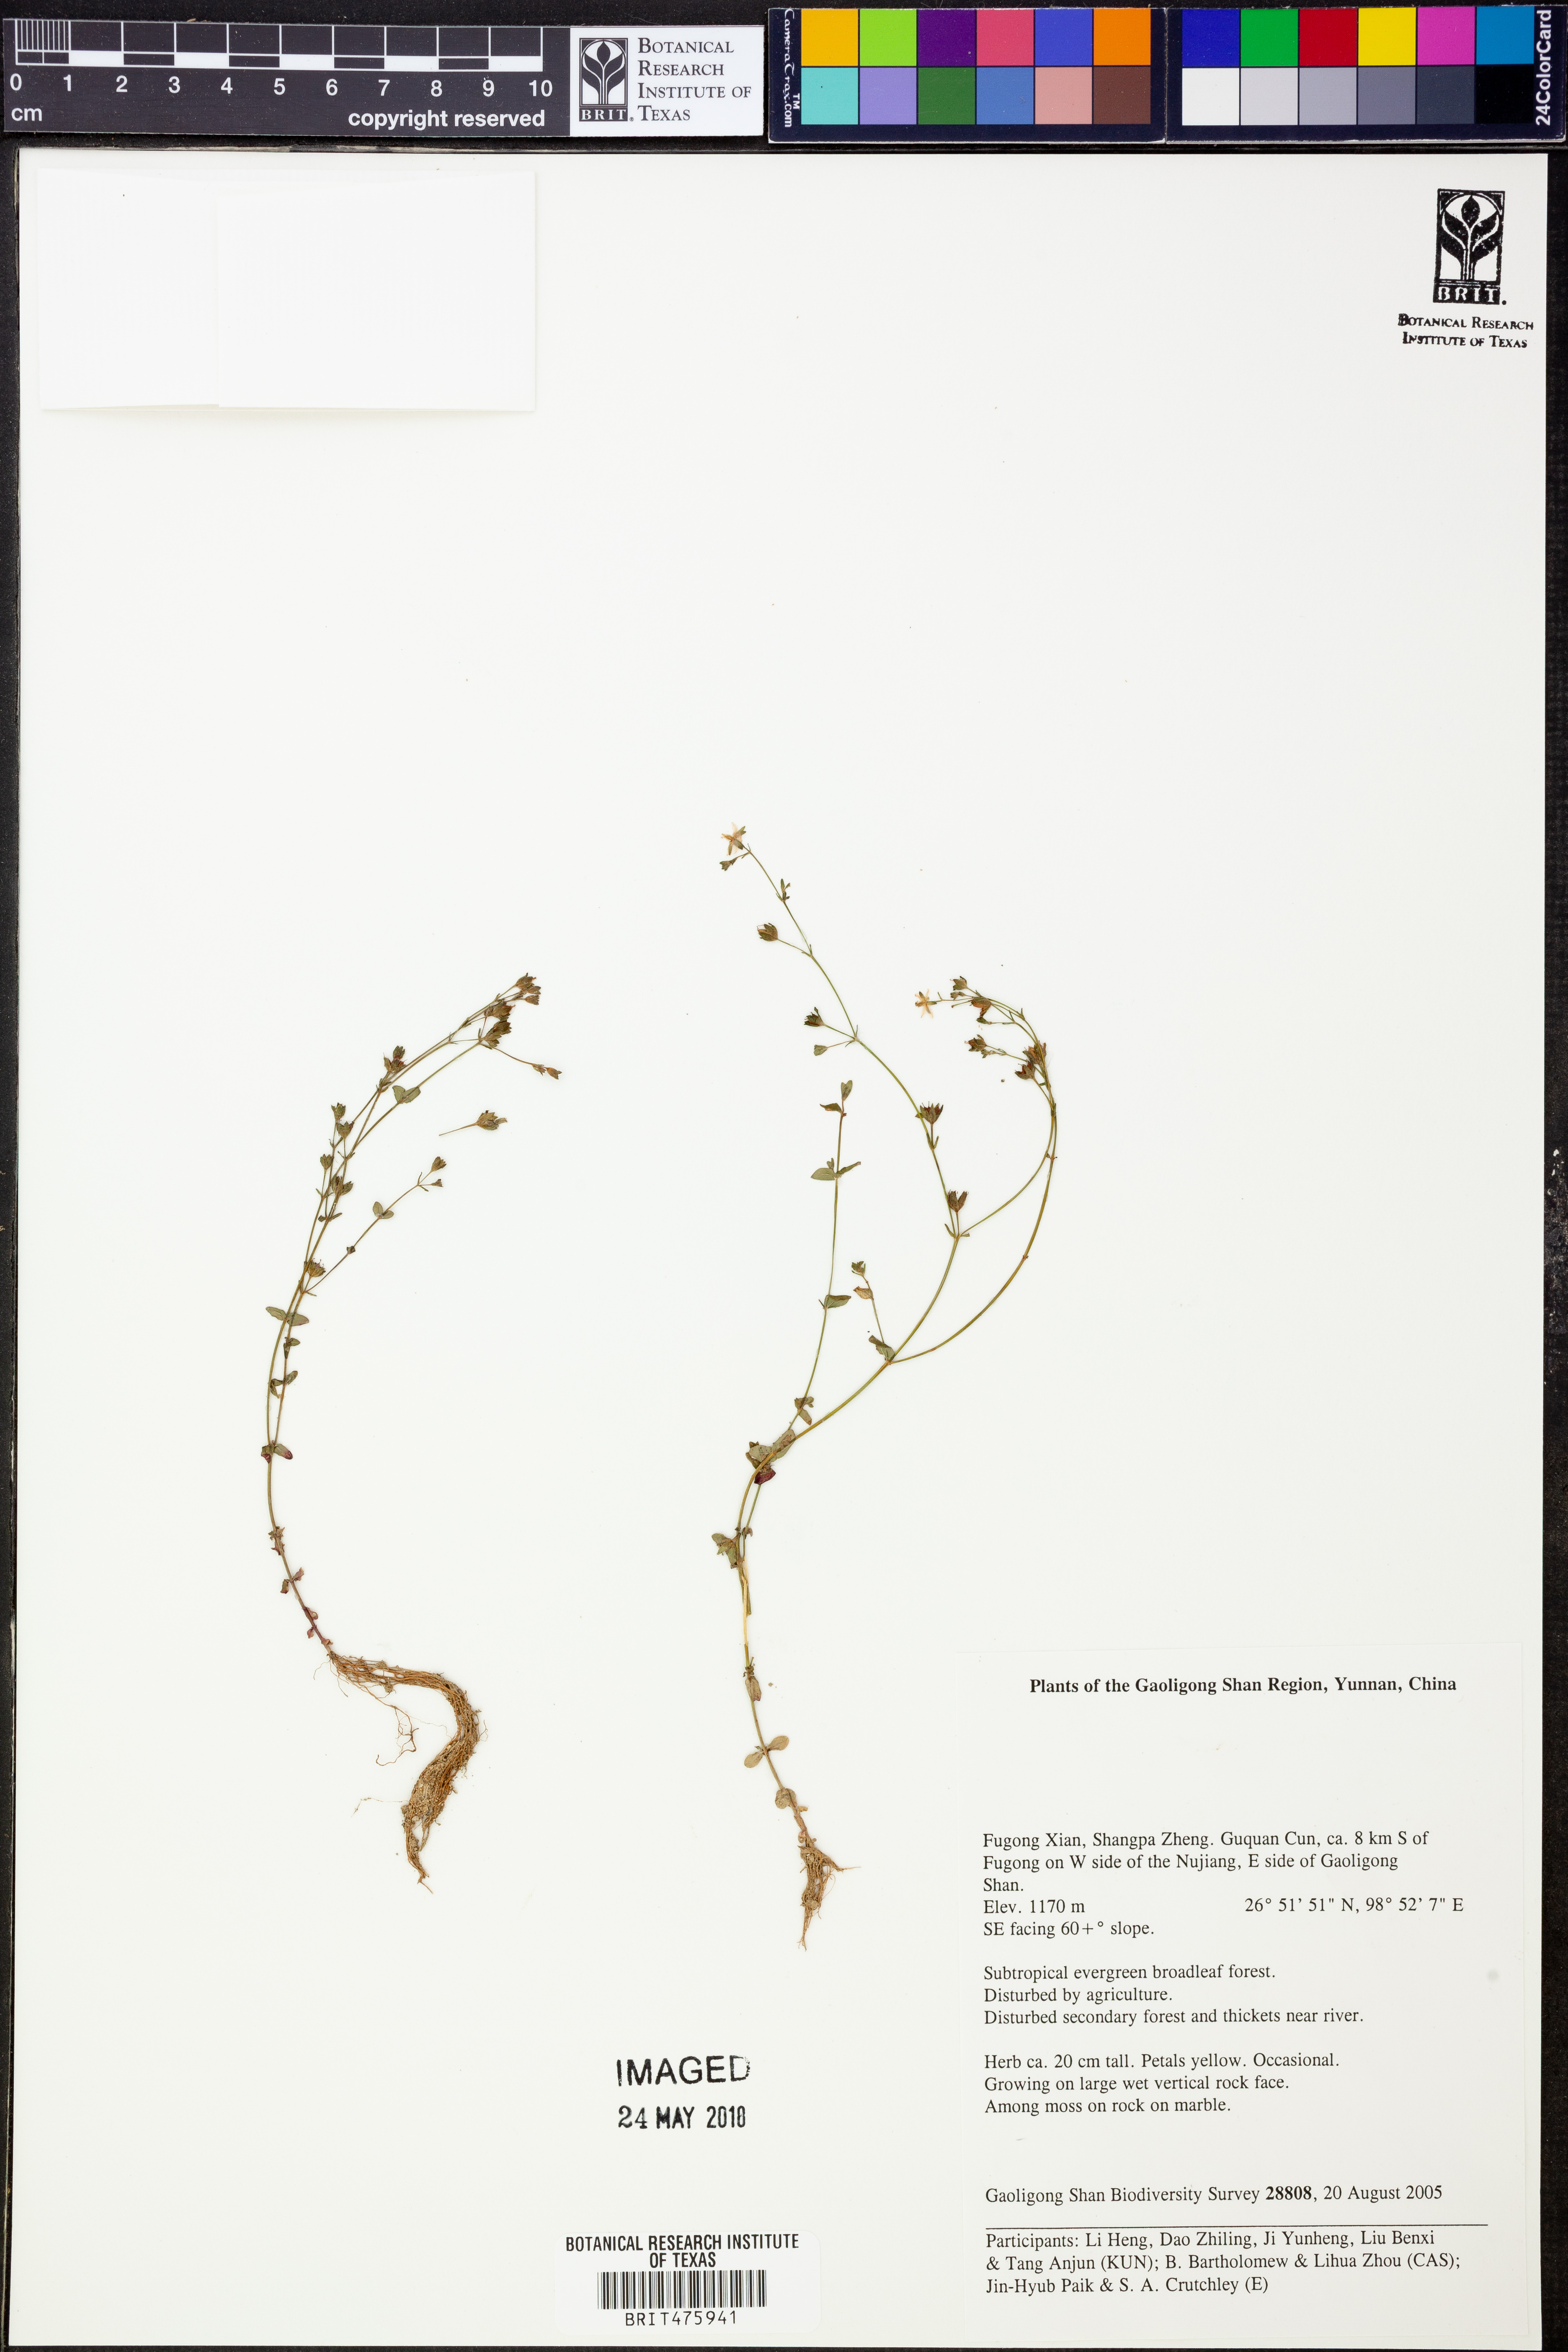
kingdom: Plantae
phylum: Tracheophyta
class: Magnoliopsida
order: Malpighiales
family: Hypericaceae
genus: Hypericum
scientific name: Hypericum
